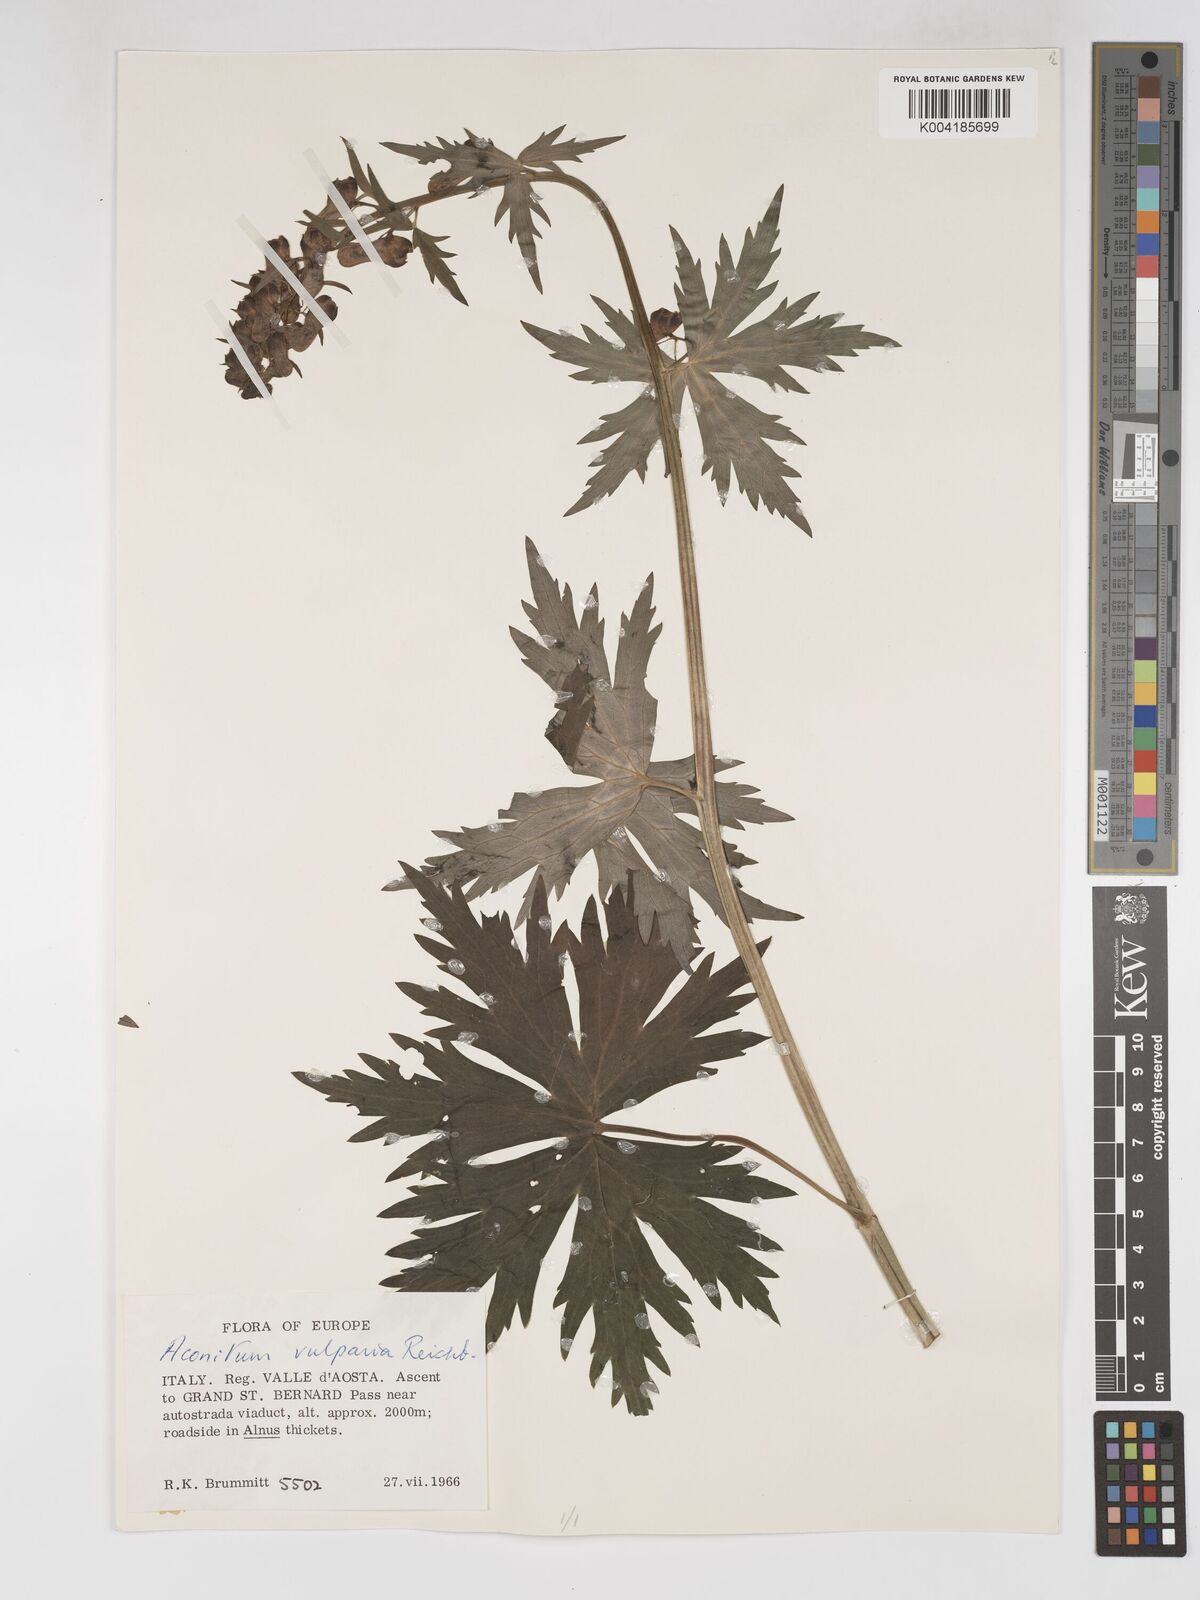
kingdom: Plantae
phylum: Tracheophyta
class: Magnoliopsida
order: Ranunculales
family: Ranunculaceae
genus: Aconitum
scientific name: Aconitum lycoctonum
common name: Wolf's-bane
